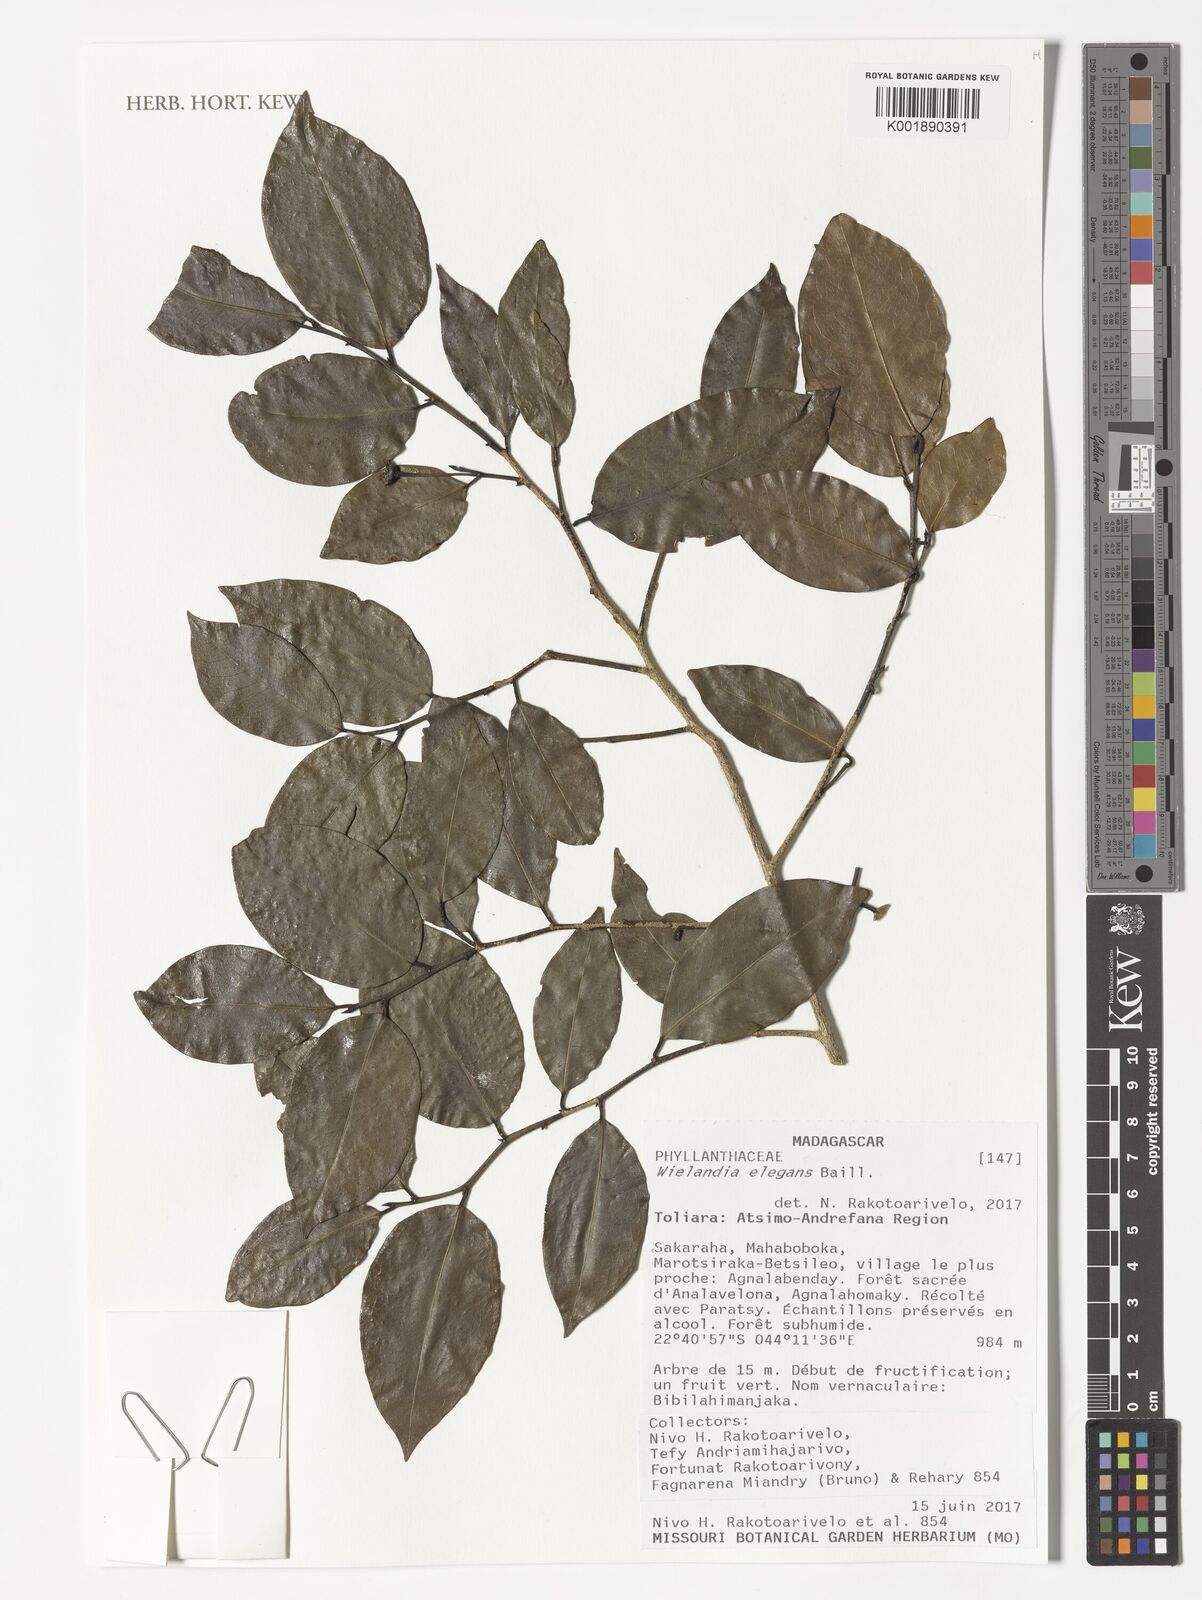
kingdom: Plantae
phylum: Tracheophyta
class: Magnoliopsida
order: Malpighiales
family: Phyllanthaceae
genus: Wielandia
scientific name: Wielandia elegans
